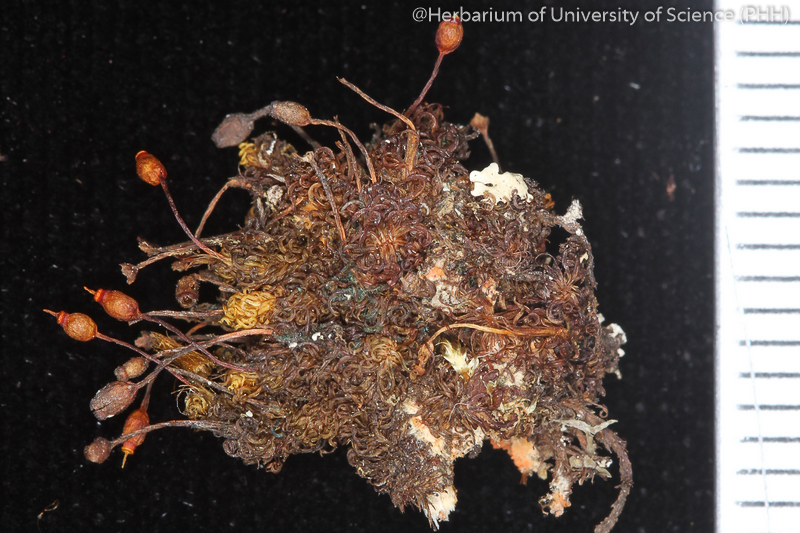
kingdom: Plantae
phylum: Bryophyta
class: Bryopsida
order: Orthotrichales
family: Orthotrichaceae
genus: Macromitrium
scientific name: Macromitrium falcatulum
